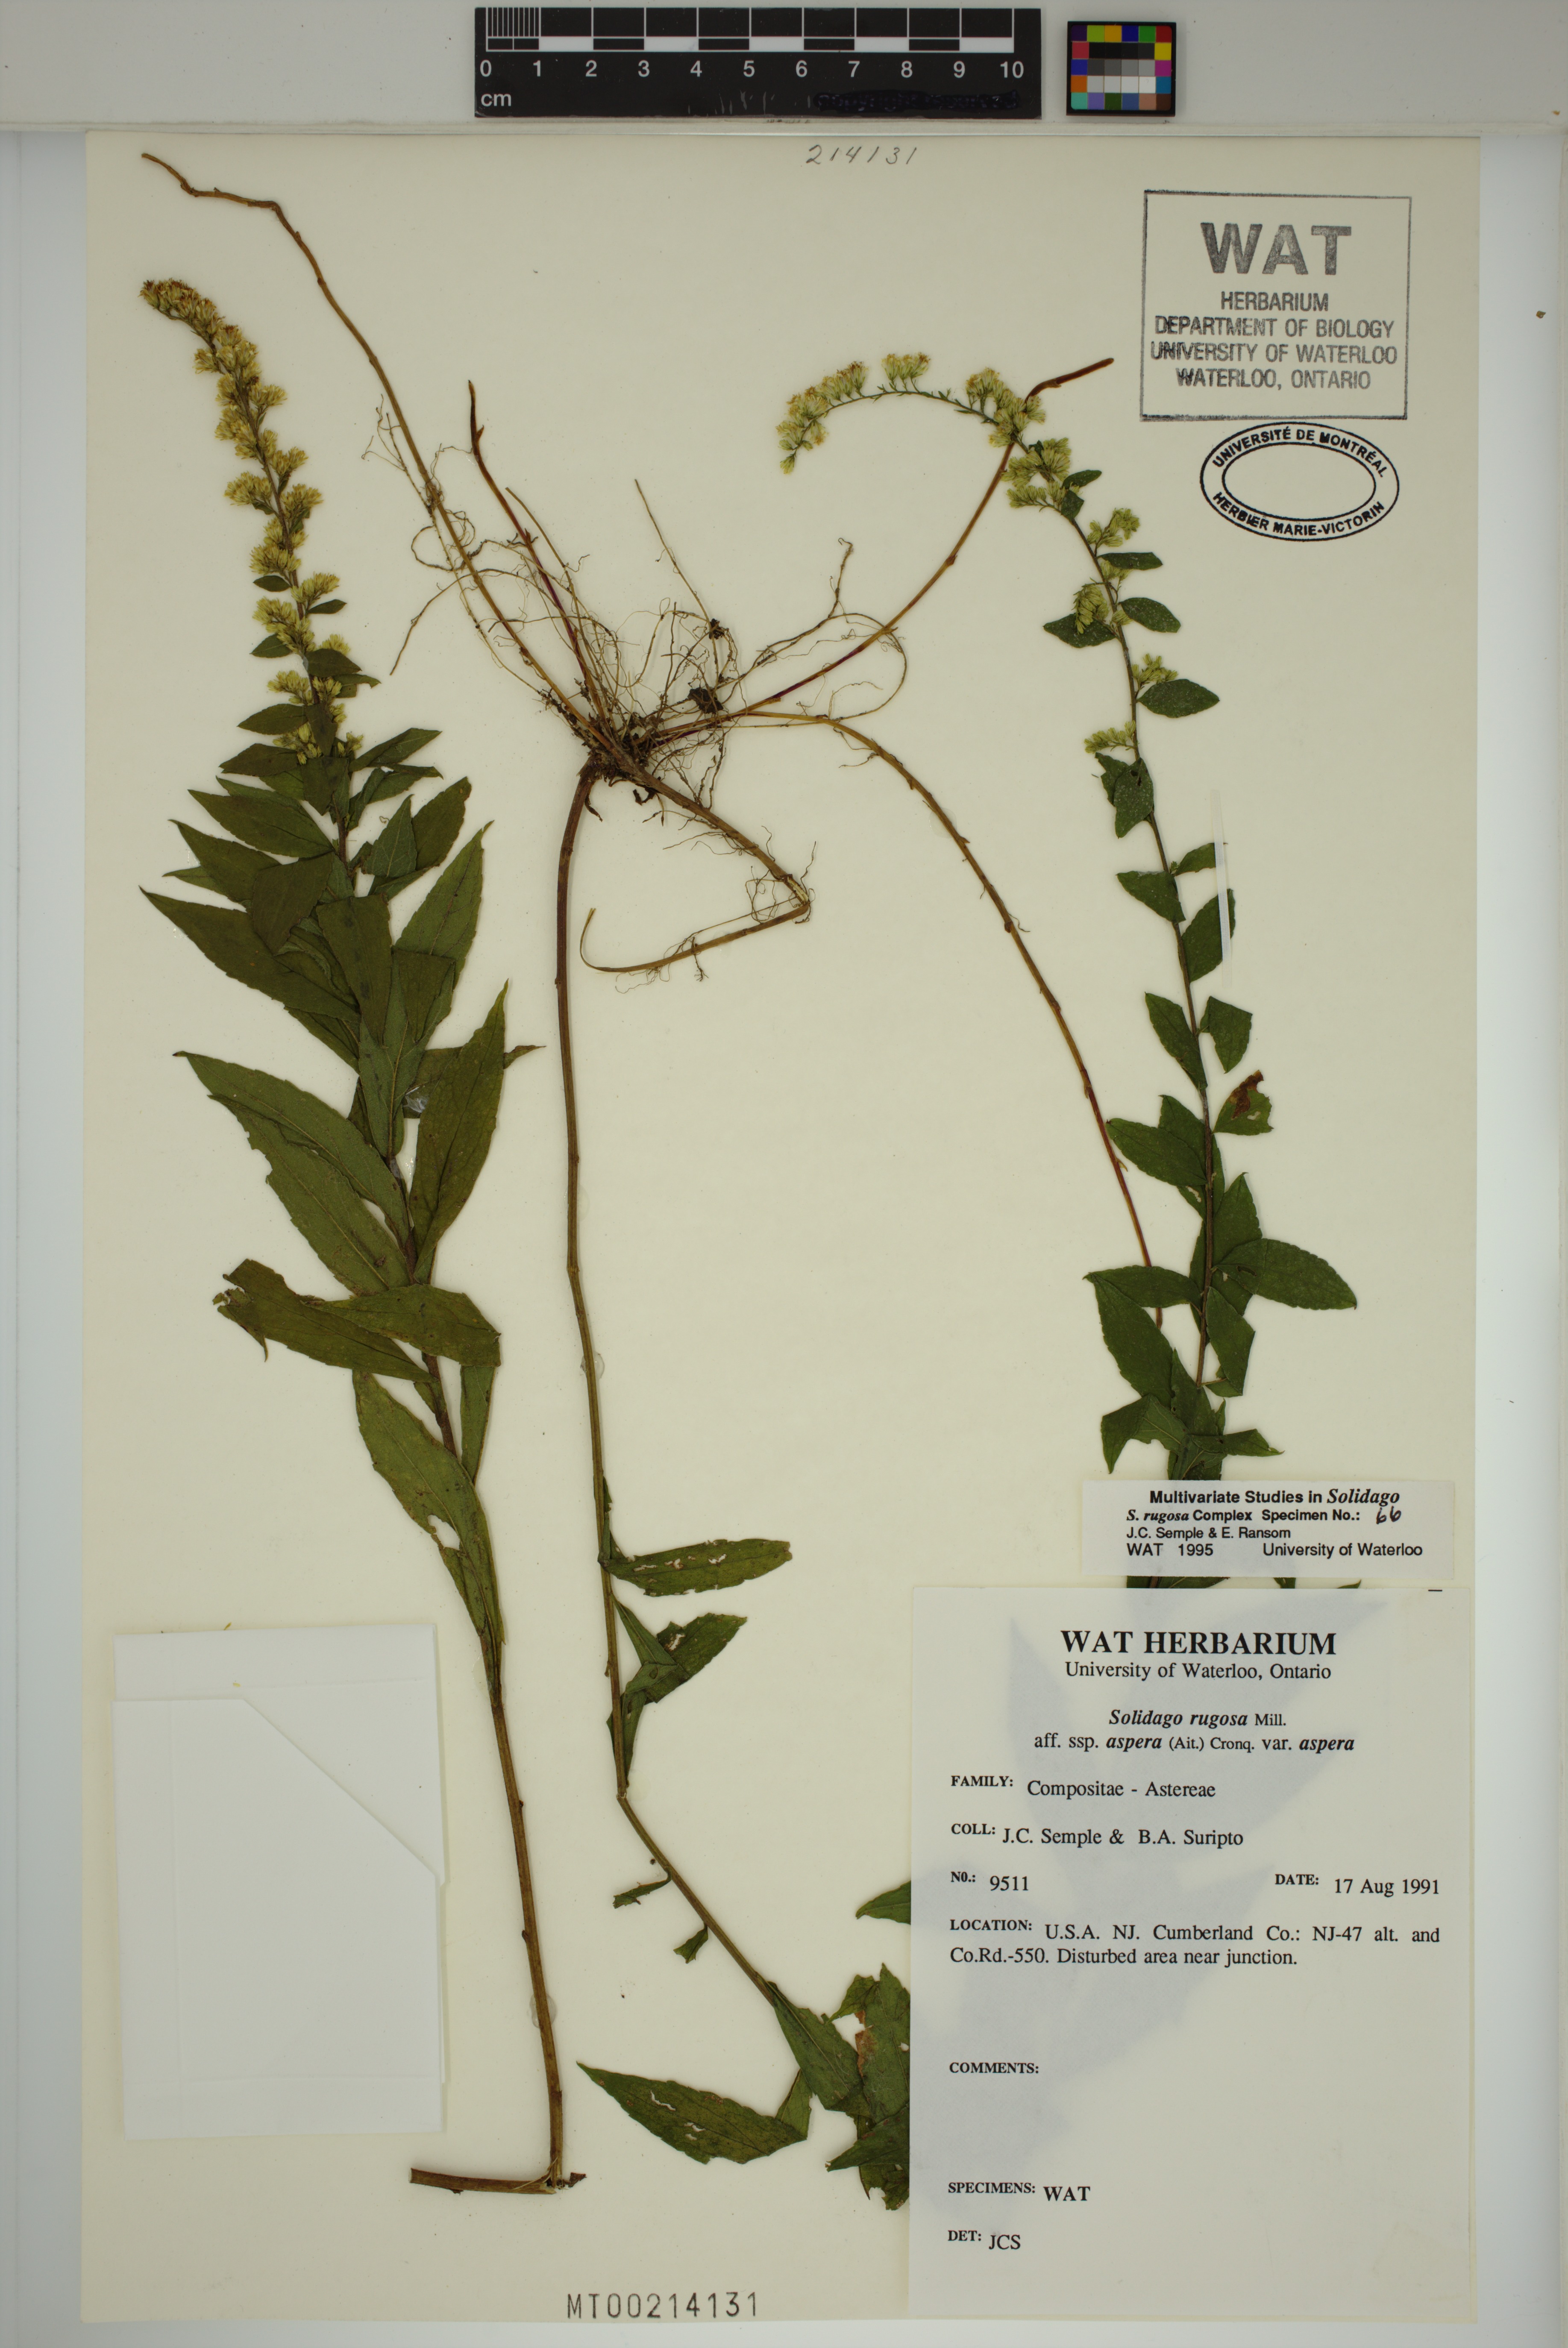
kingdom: Plantae
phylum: Tracheophyta
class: Magnoliopsida
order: Asterales
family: Asteraceae
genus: Solidago
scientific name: Solidago rugosa
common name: Rough-stemmed goldenrod
